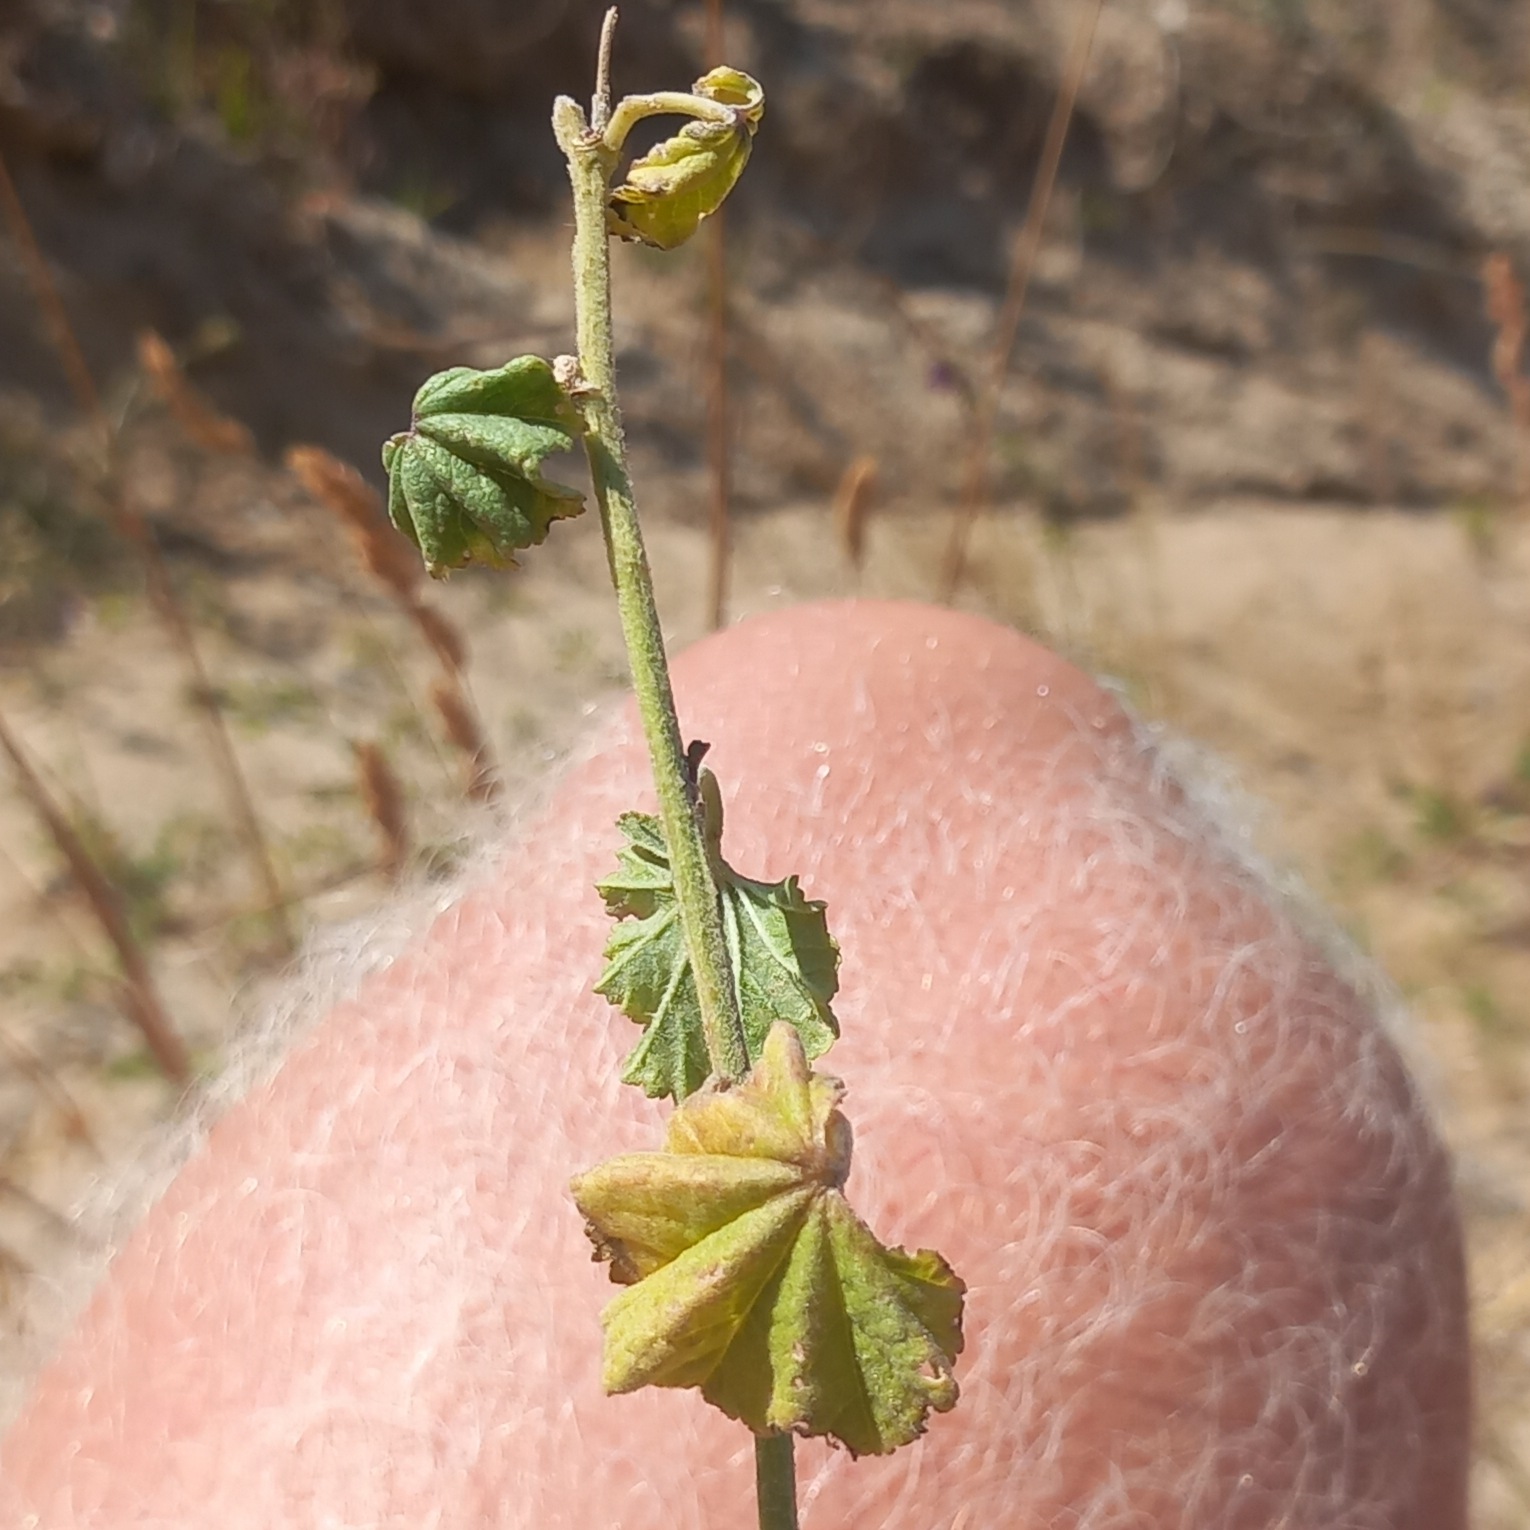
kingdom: Plantae
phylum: Tracheophyta
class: Magnoliopsida
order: Malvales
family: Malvaceae
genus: Malva
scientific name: Malva alcea
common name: Rosen-katost
